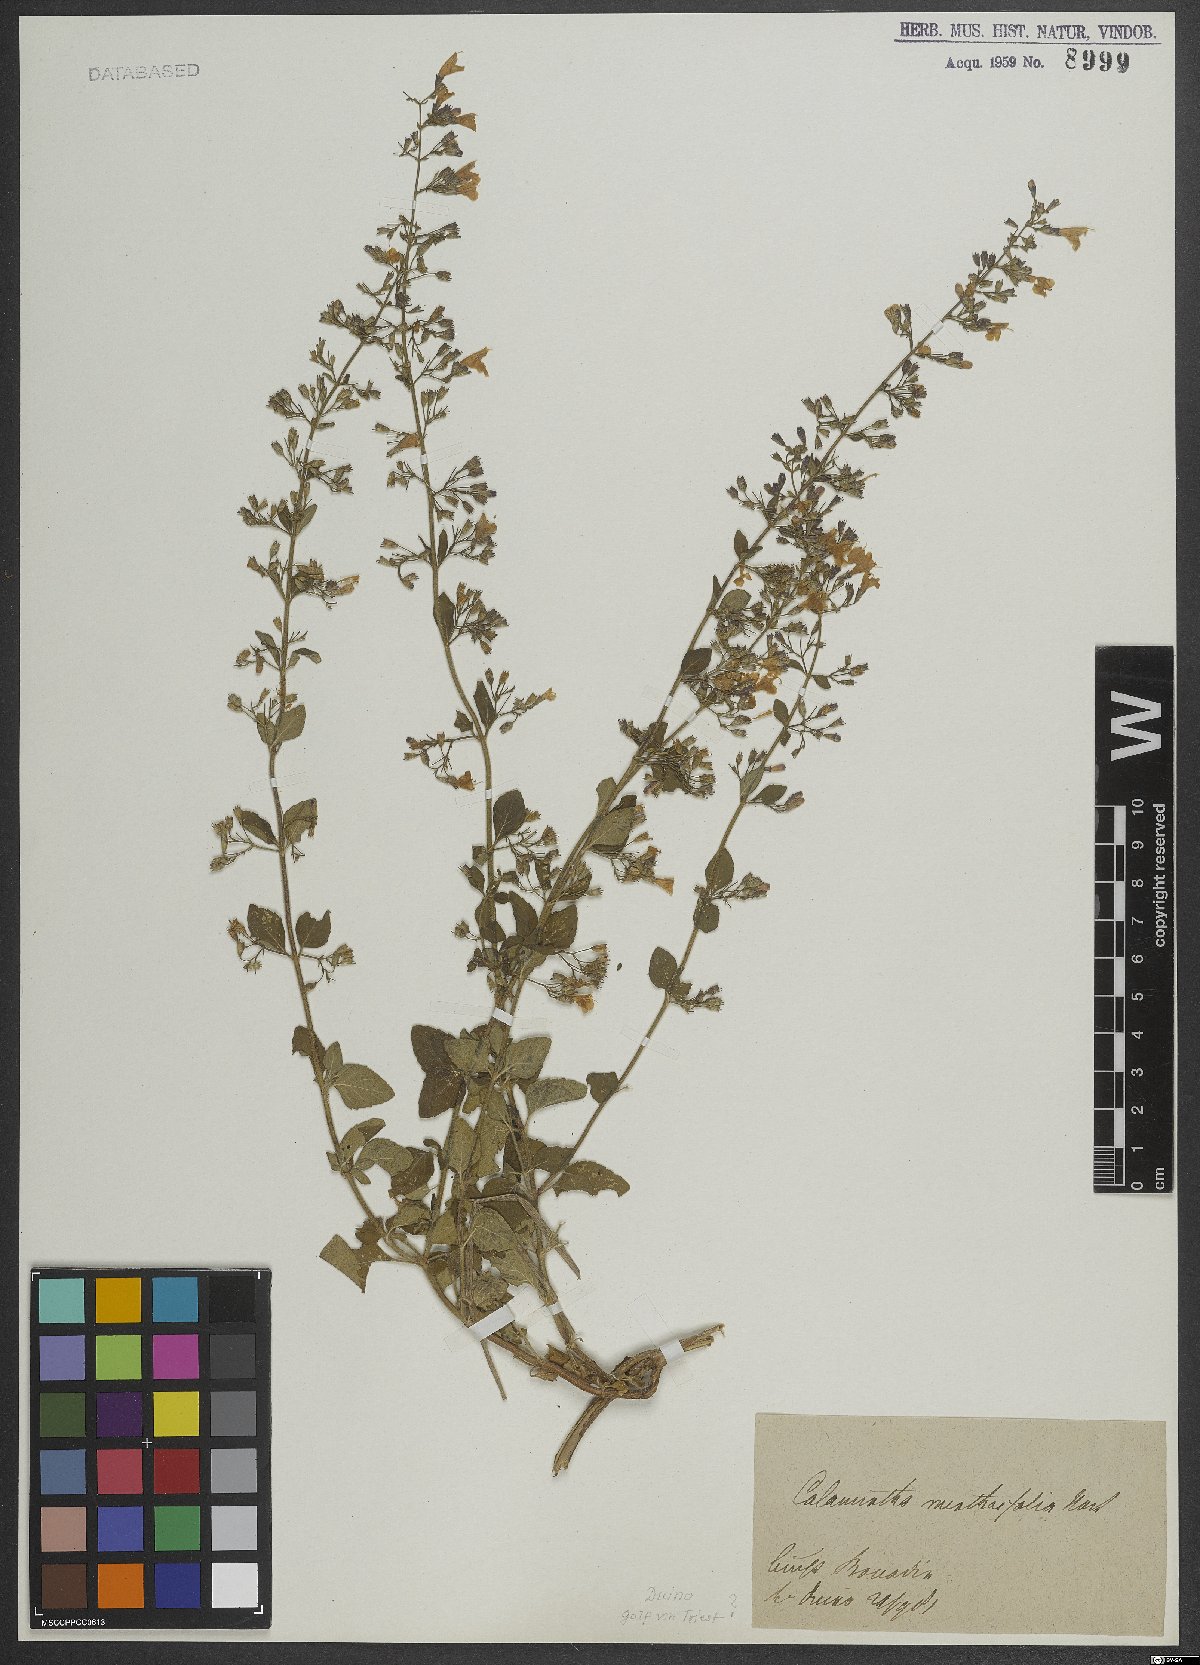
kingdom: Plantae
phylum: Tracheophyta
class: Magnoliopsida
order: Lamiales
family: Lamiaceae
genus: Calamintha
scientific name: Calamintha
